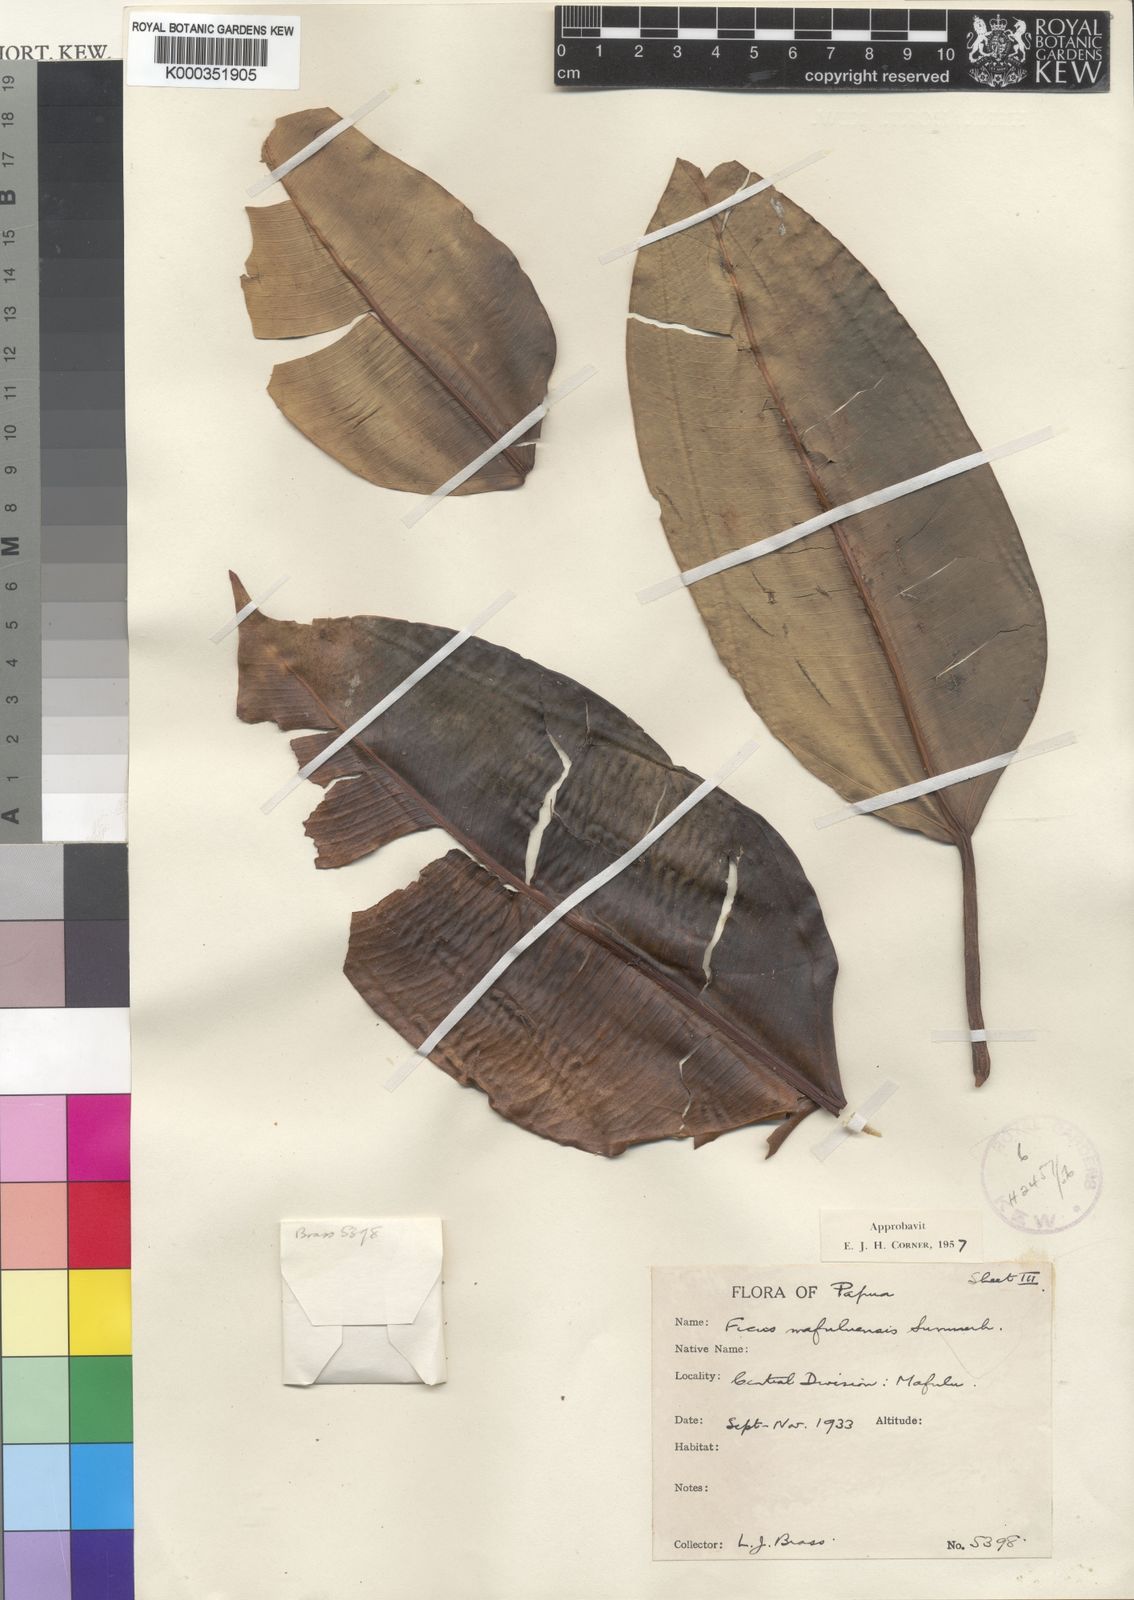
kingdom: Plantae
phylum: Tracheophyta
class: Magnoliopsida
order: Rosales
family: Moraceae
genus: Ficus
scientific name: Ficus hesperidiiformis
